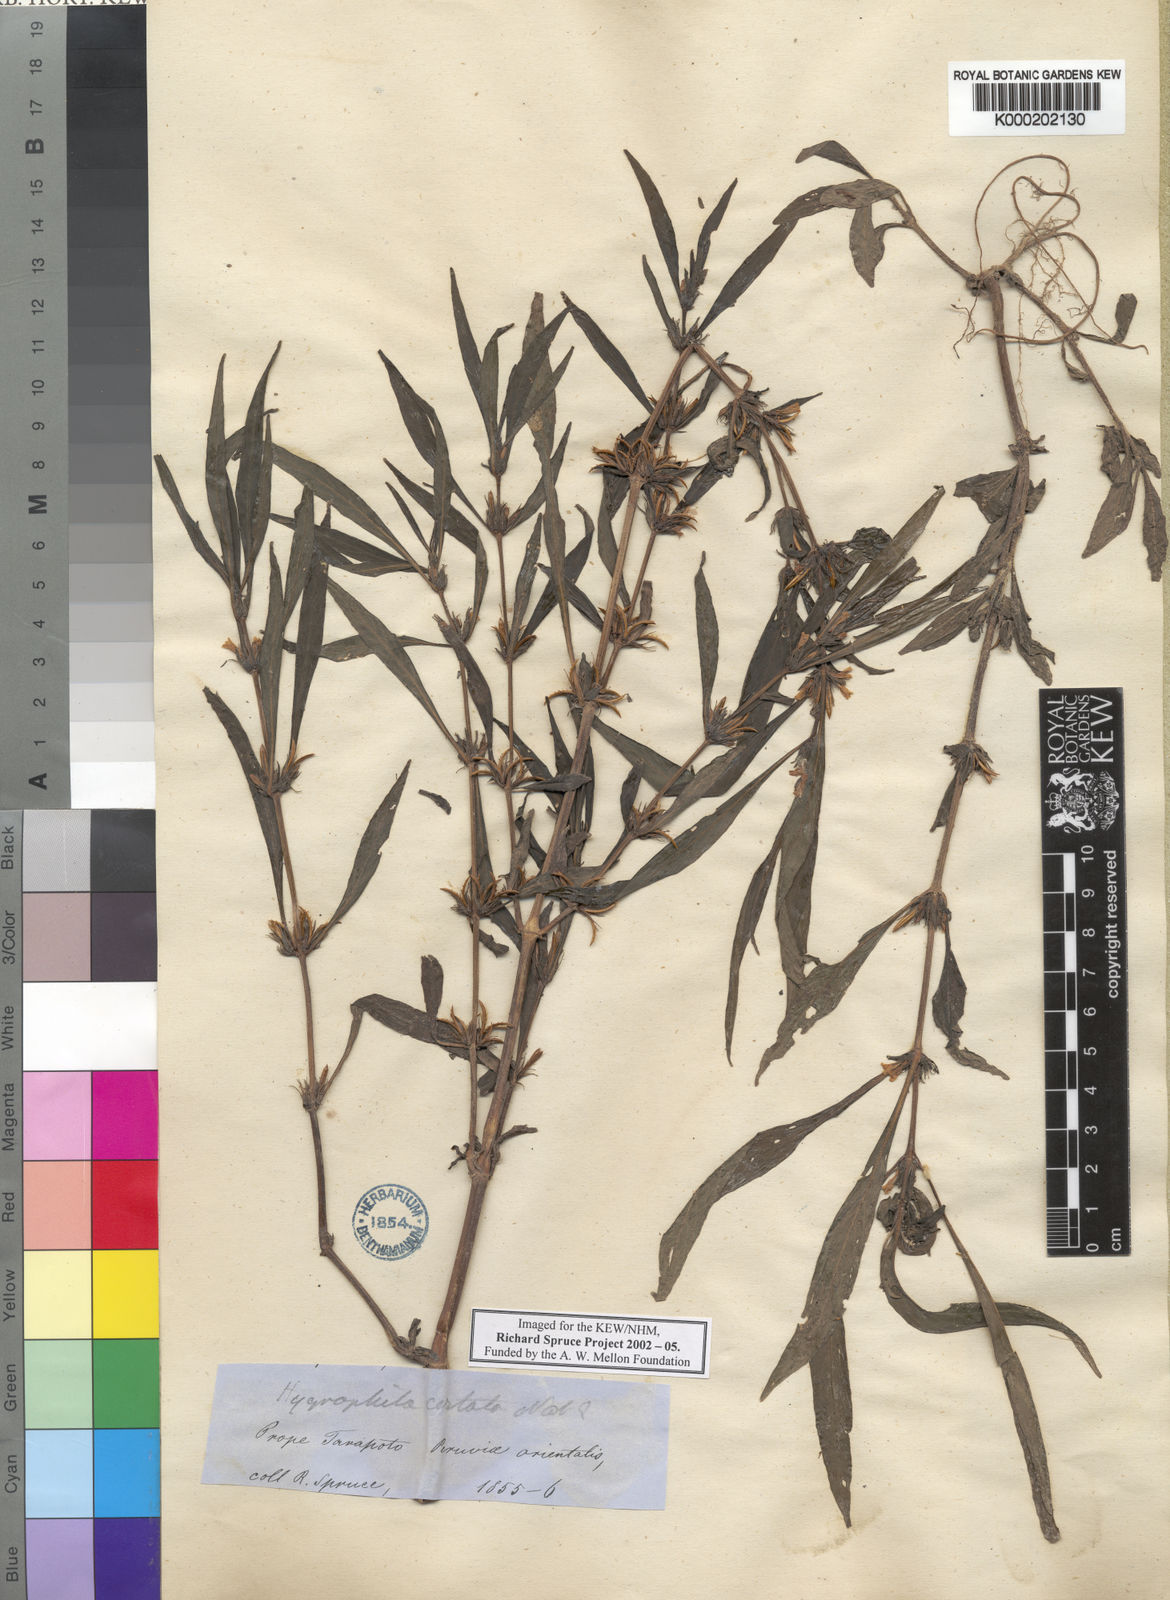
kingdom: Plantae
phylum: Tracheophyta
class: Magnoliopsida
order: Lamiales
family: Acanthaceae
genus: Hygrophila
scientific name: Hygrophila costata
